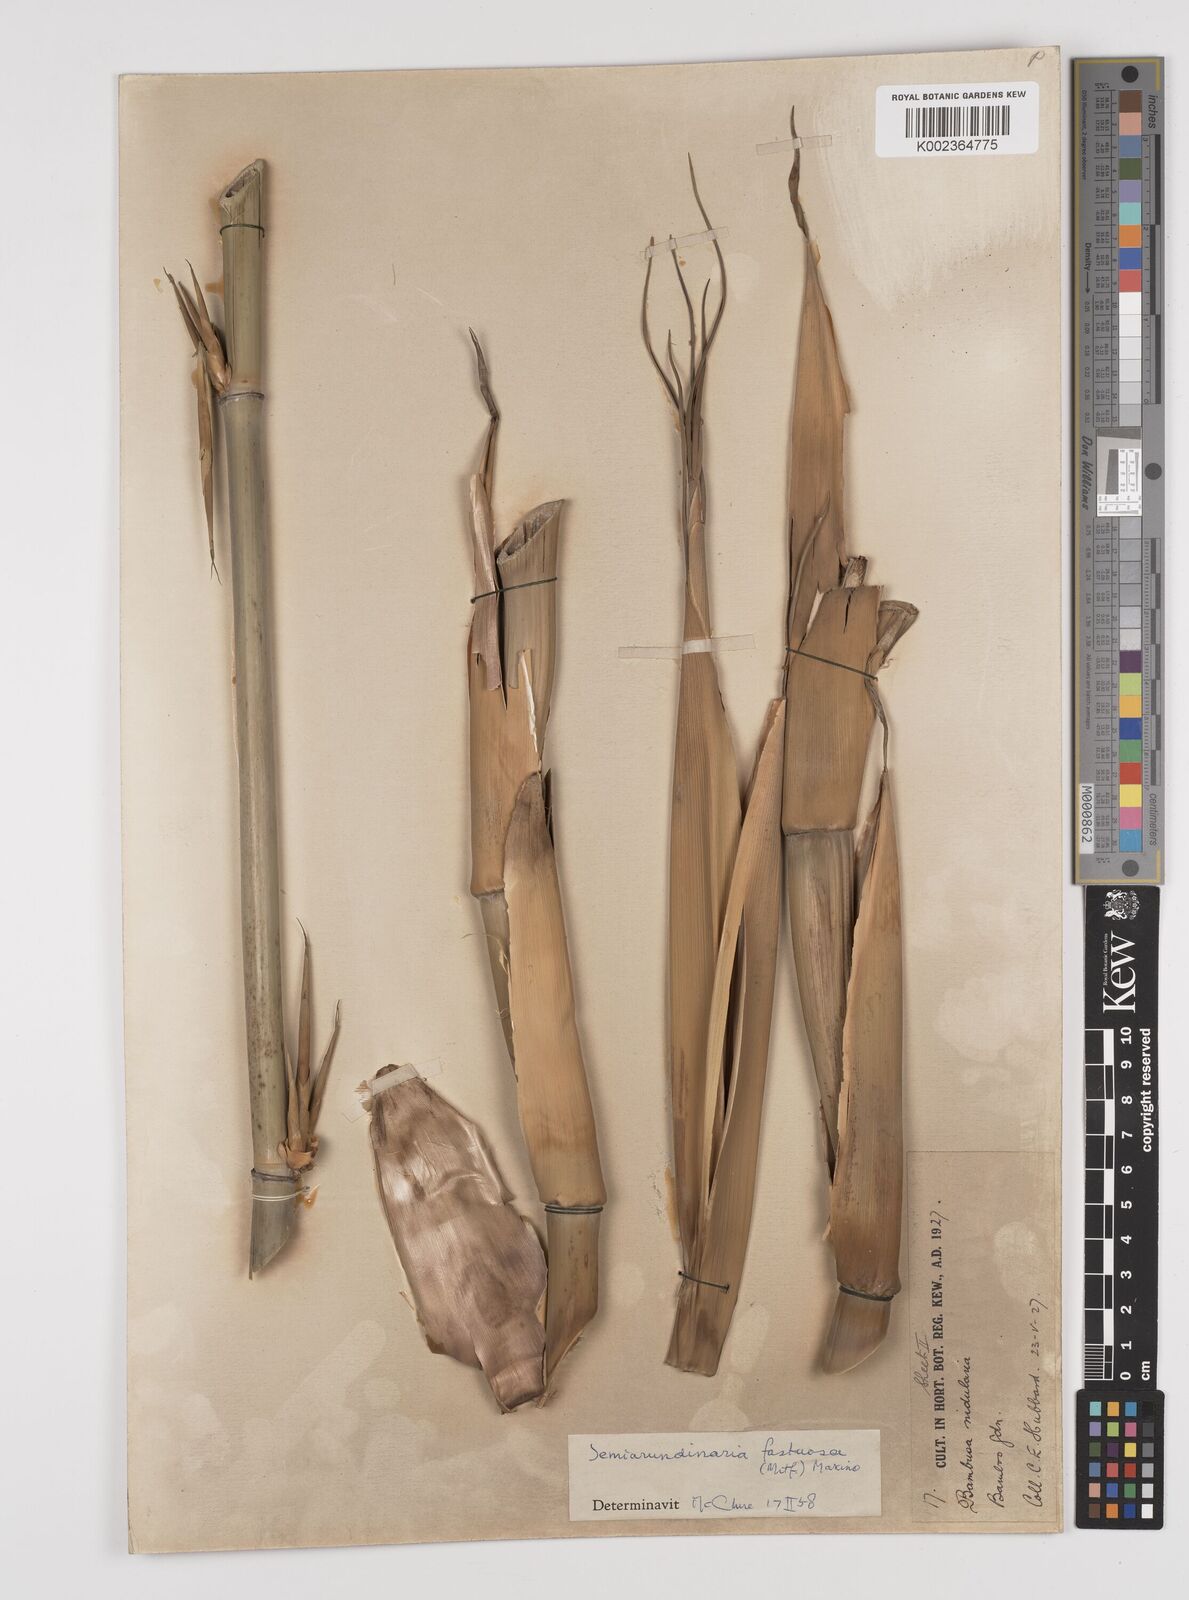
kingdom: Plantae
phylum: Tracheophyta
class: Liliopsida
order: Poales
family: Poaceae
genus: Semiarundinaria
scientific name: Semiarundinaria fastuosa
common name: Narihira bamboo
